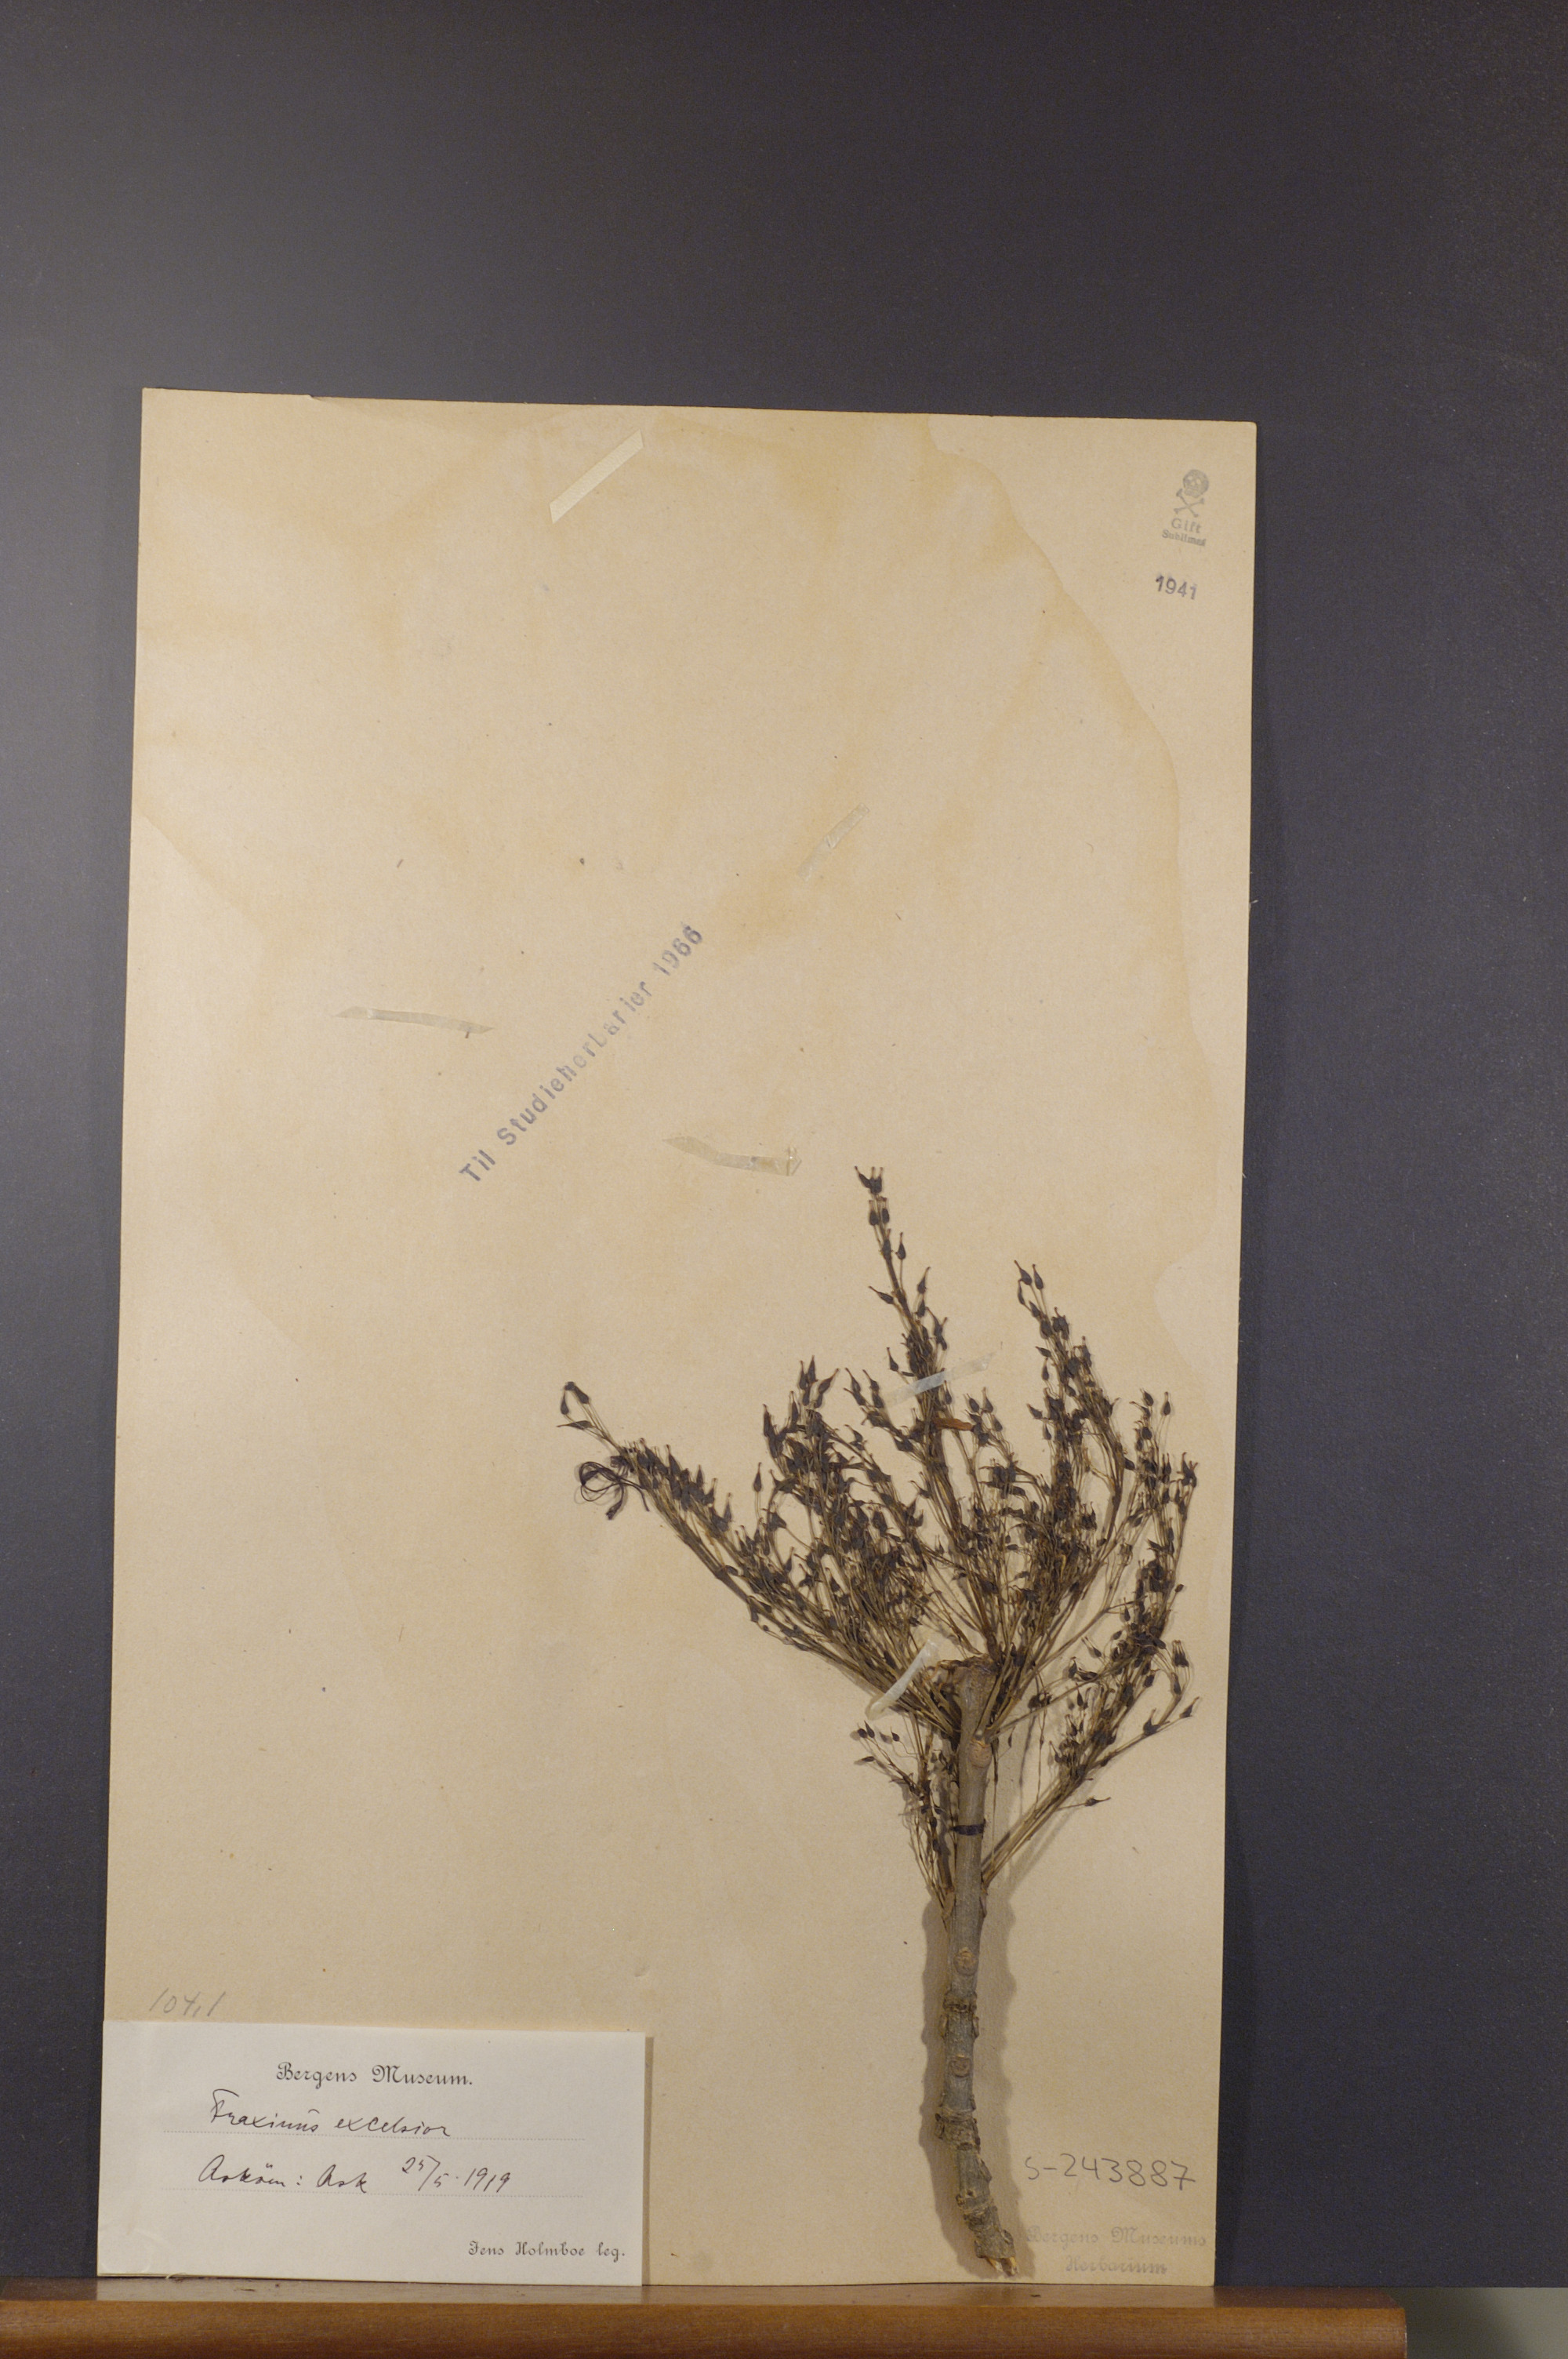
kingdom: Plantae
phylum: Tracheophyta
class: Magnoliopsida
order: Lamiales
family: Oleaceae
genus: Fraxinus
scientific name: Fraxinus excelsior
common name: European ash
